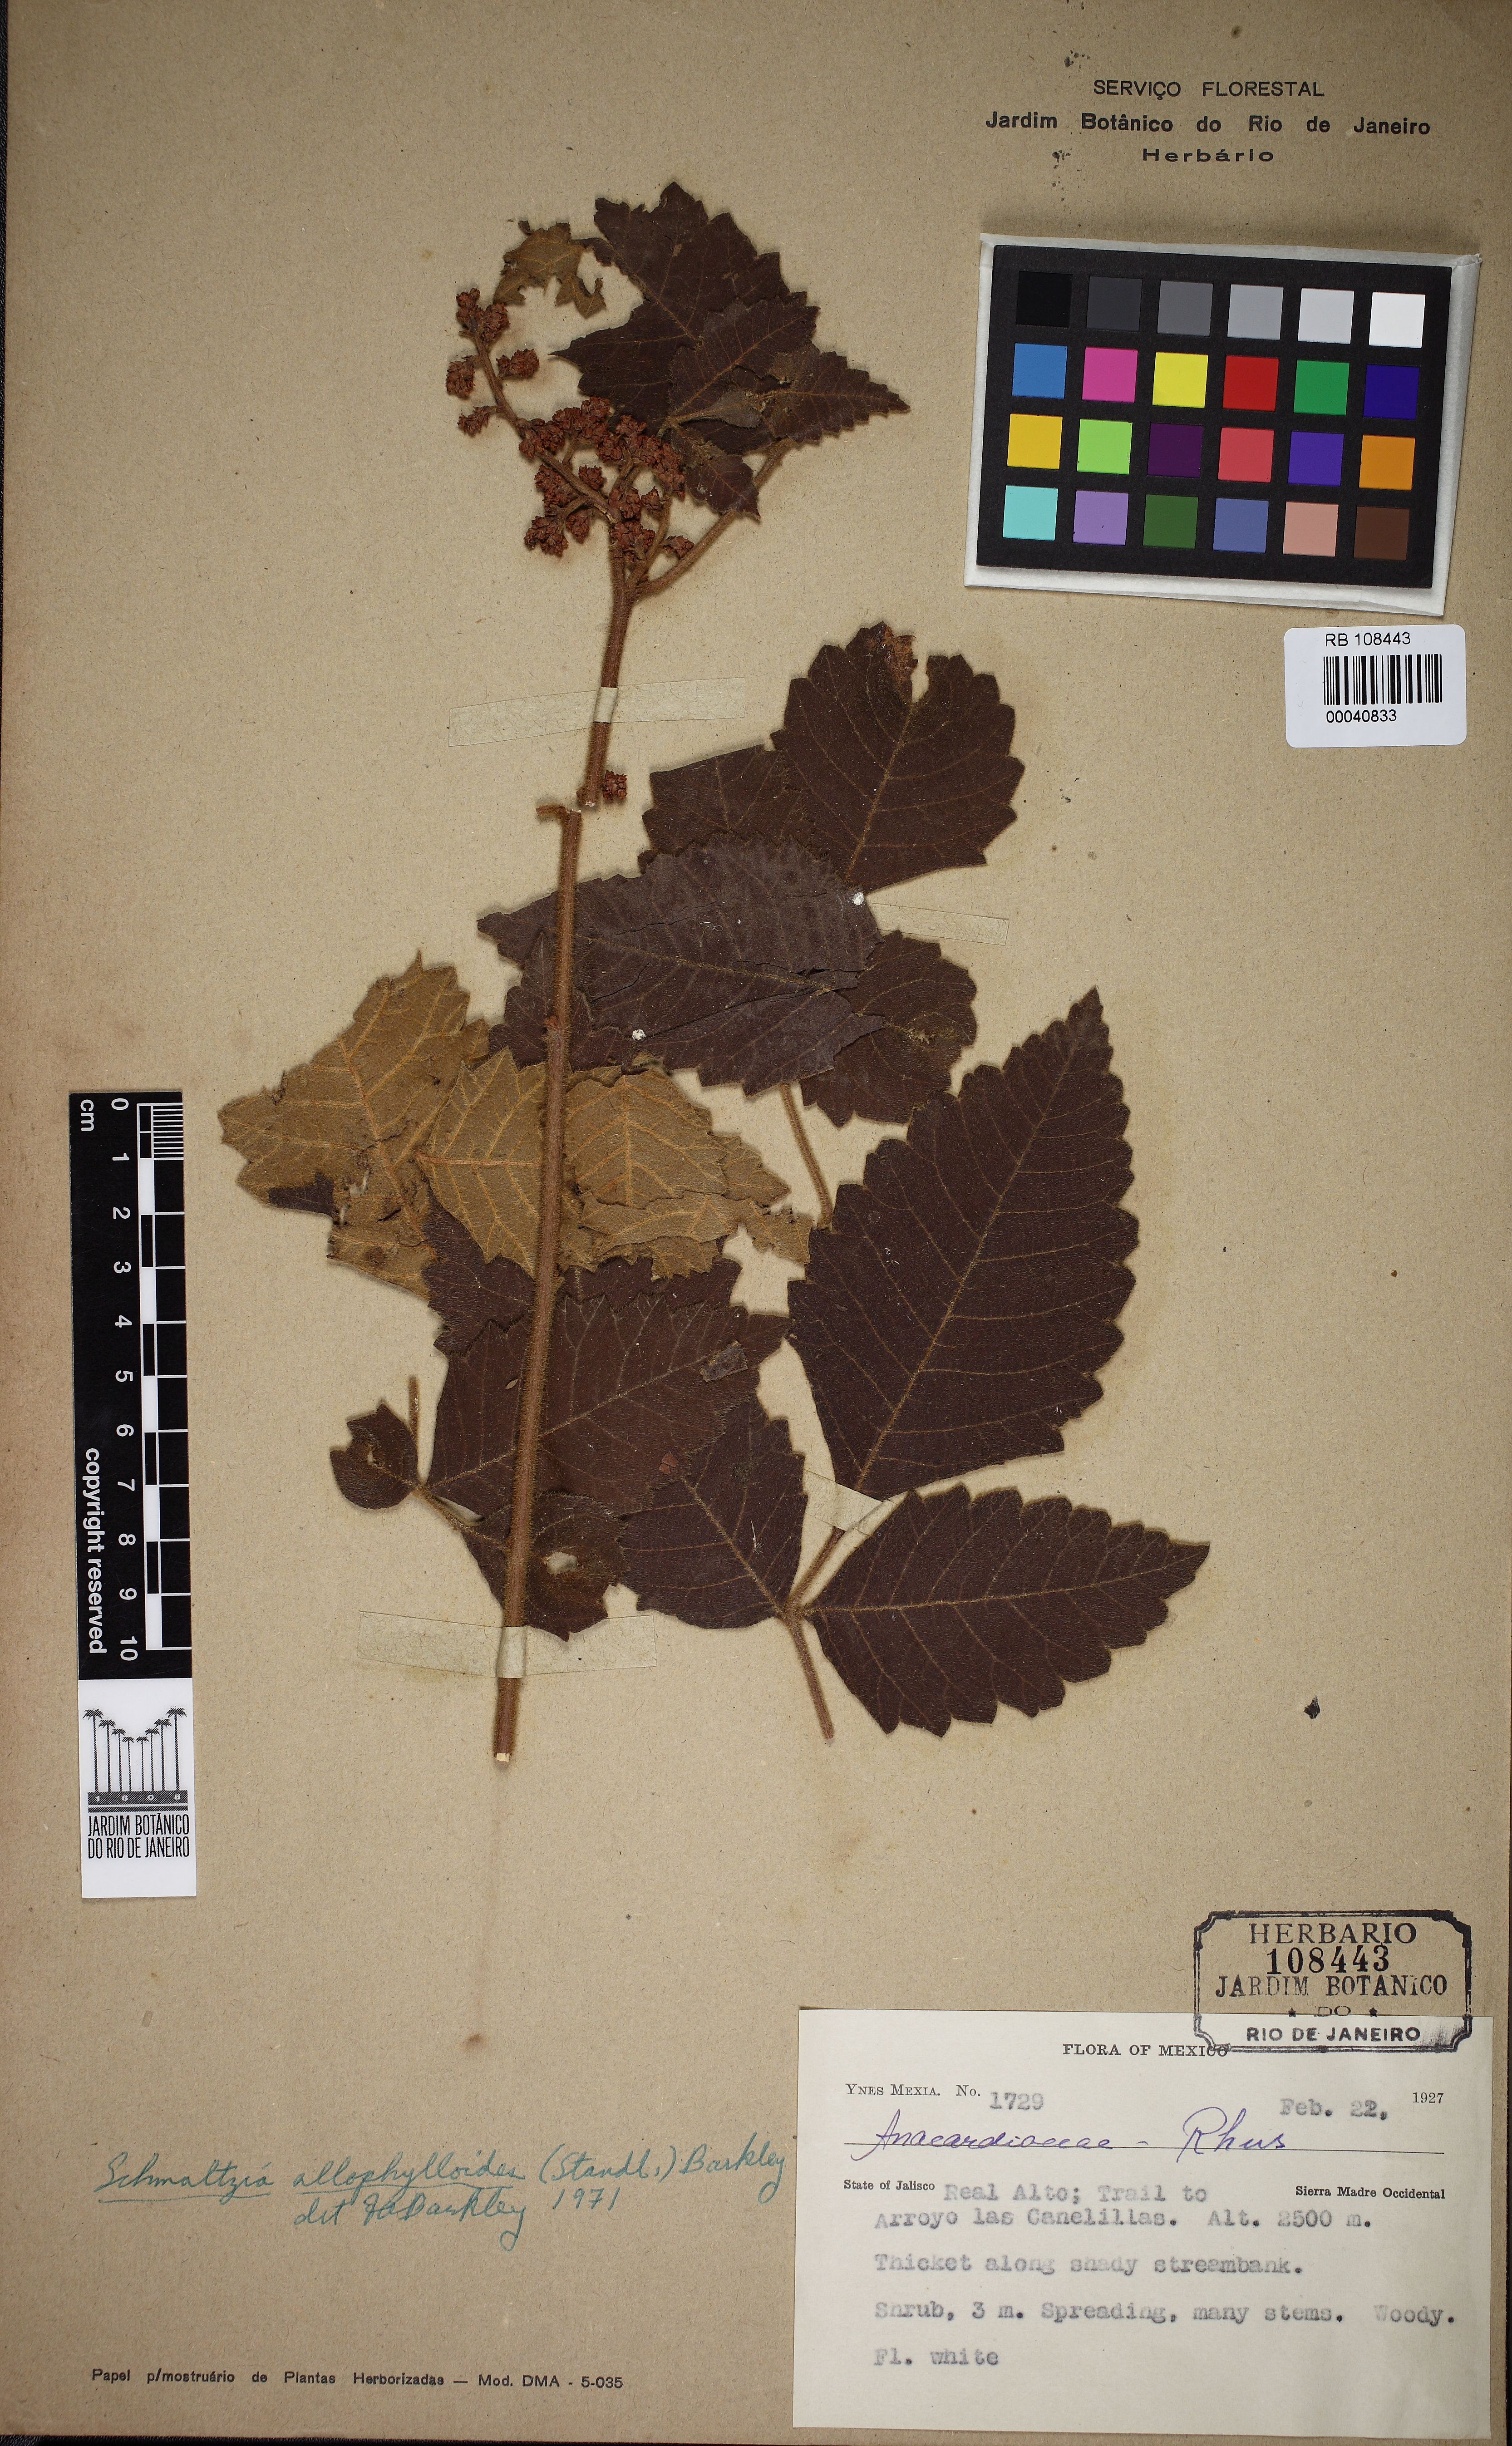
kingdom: Plantae
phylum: Tracheophyta
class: Magnoliopsida
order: Sapindales
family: Anacardiaceae
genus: Rhus
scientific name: Rhus
